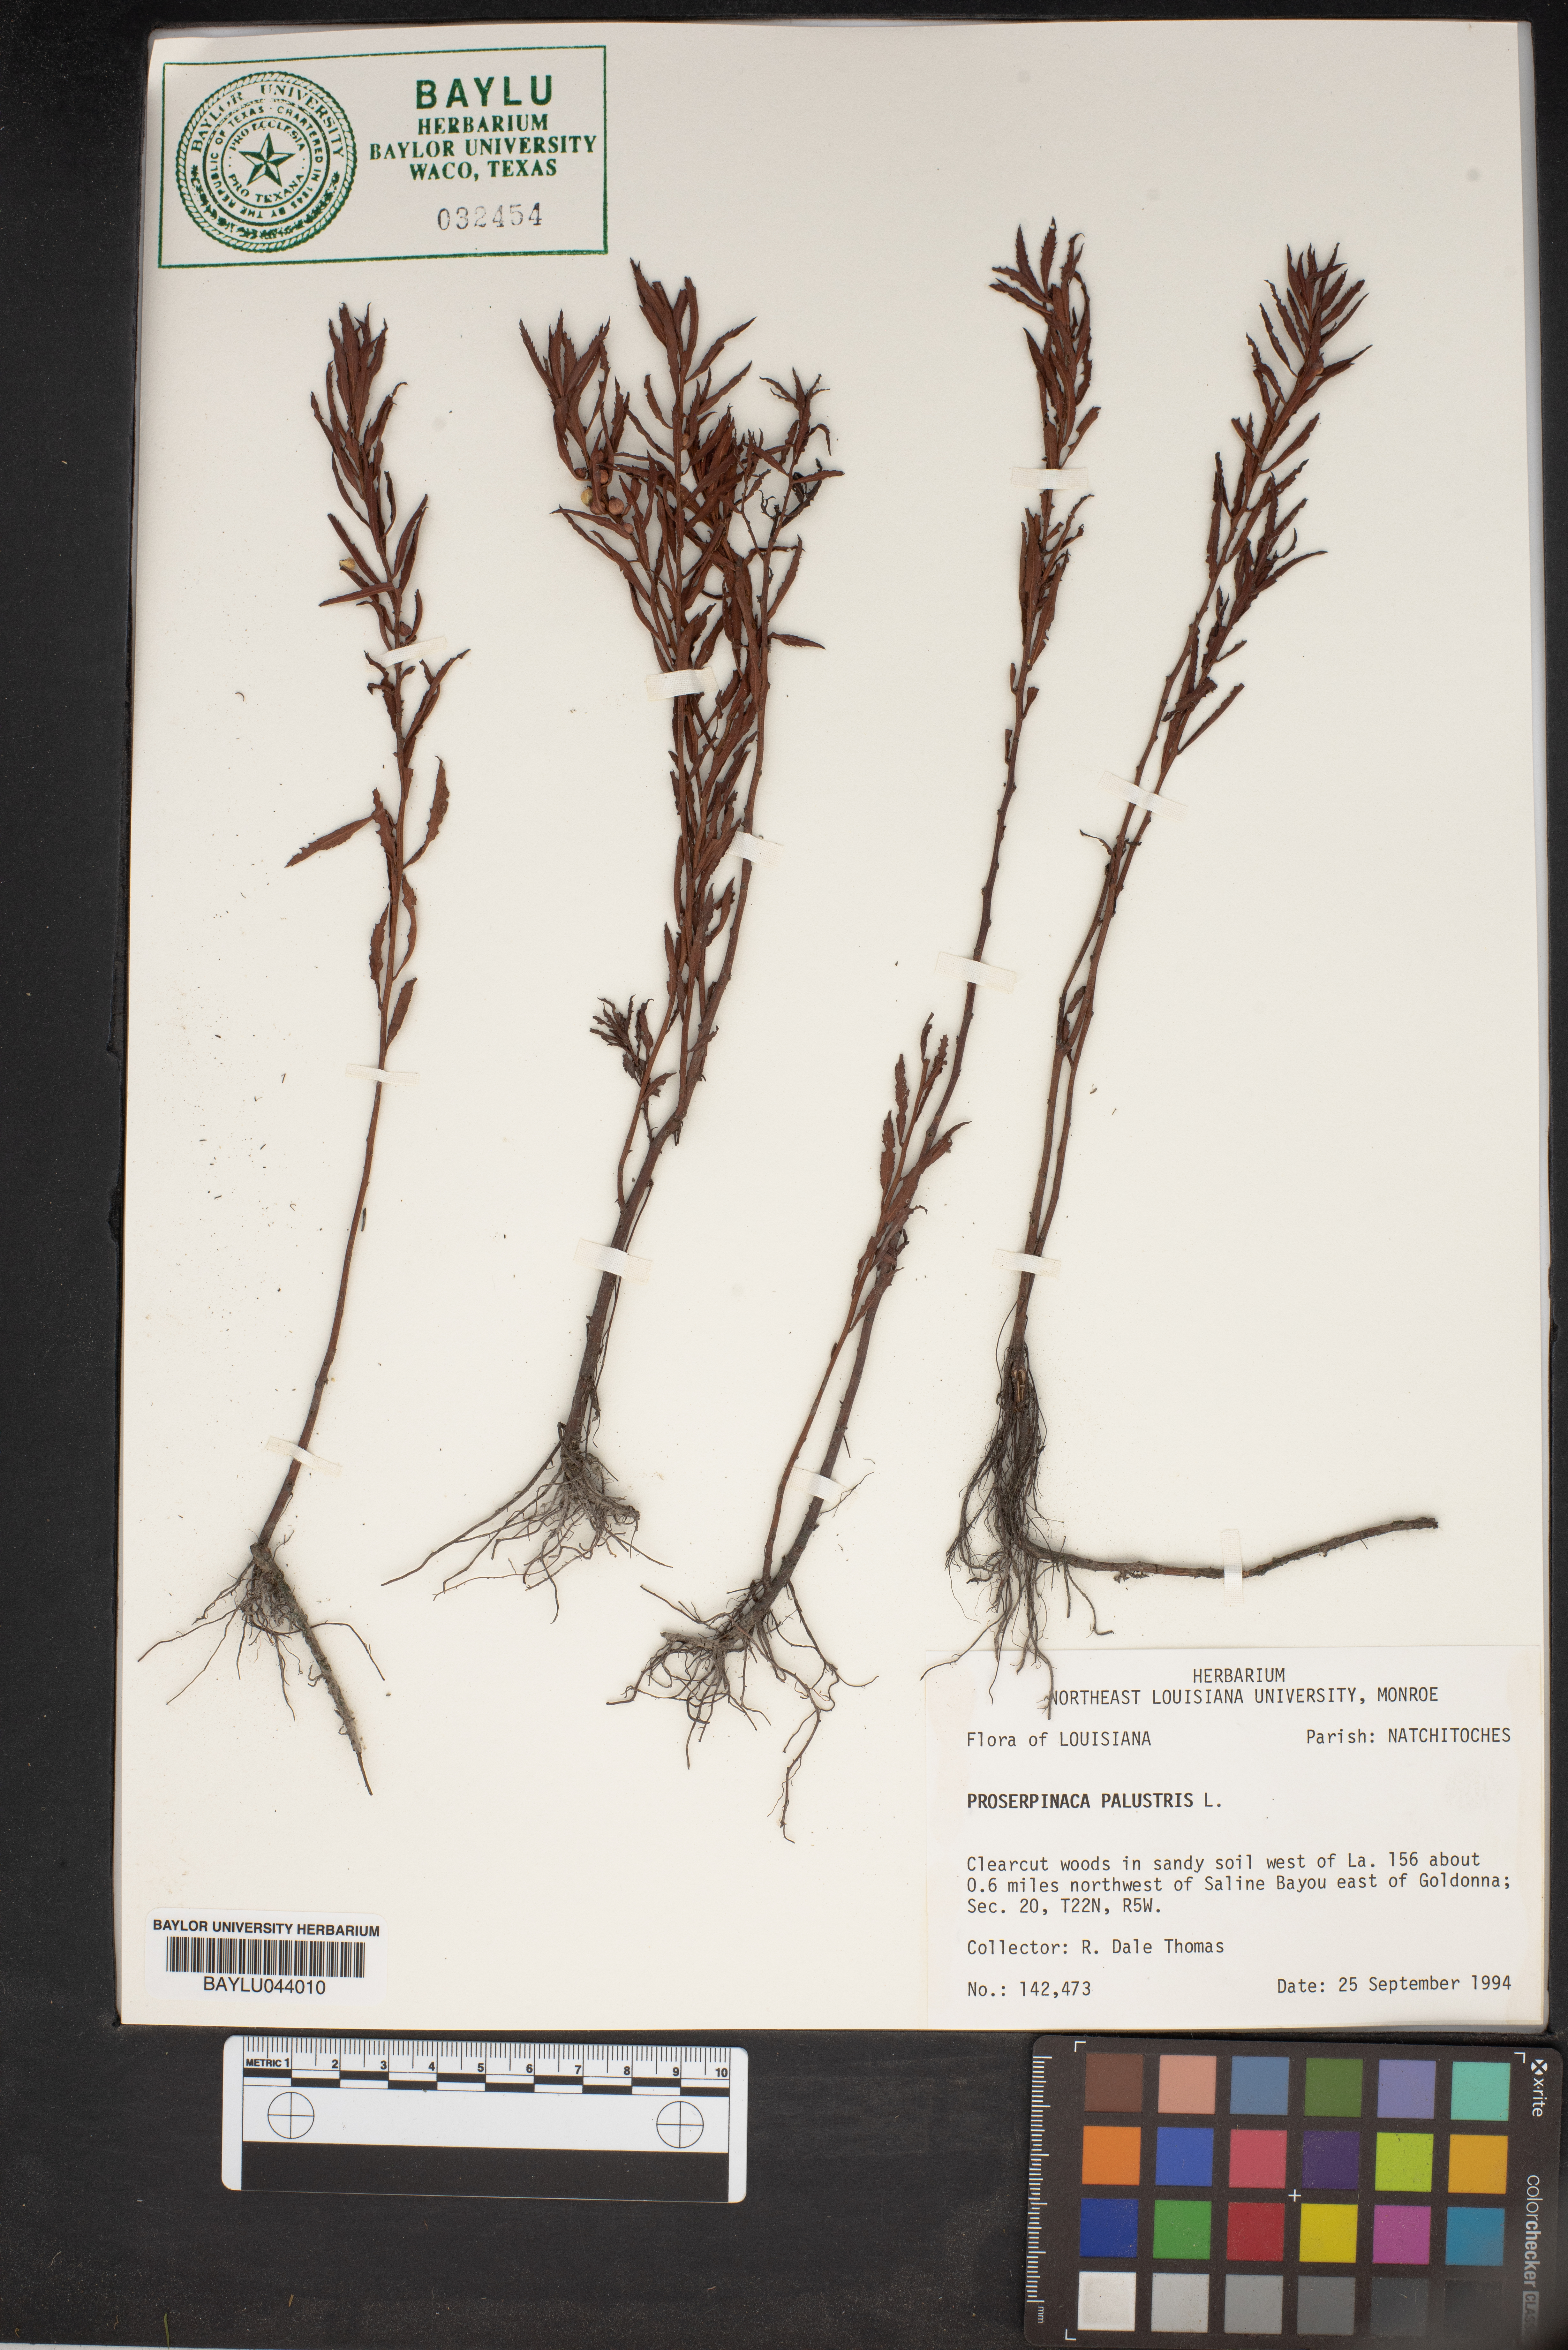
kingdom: Plantae
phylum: Tracheophyta
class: Magnoliopsida
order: Saxifragales
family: Haloragaceae
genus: Proserpinaca
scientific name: Proserpinaca palustris
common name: Marsh mermaidweed
